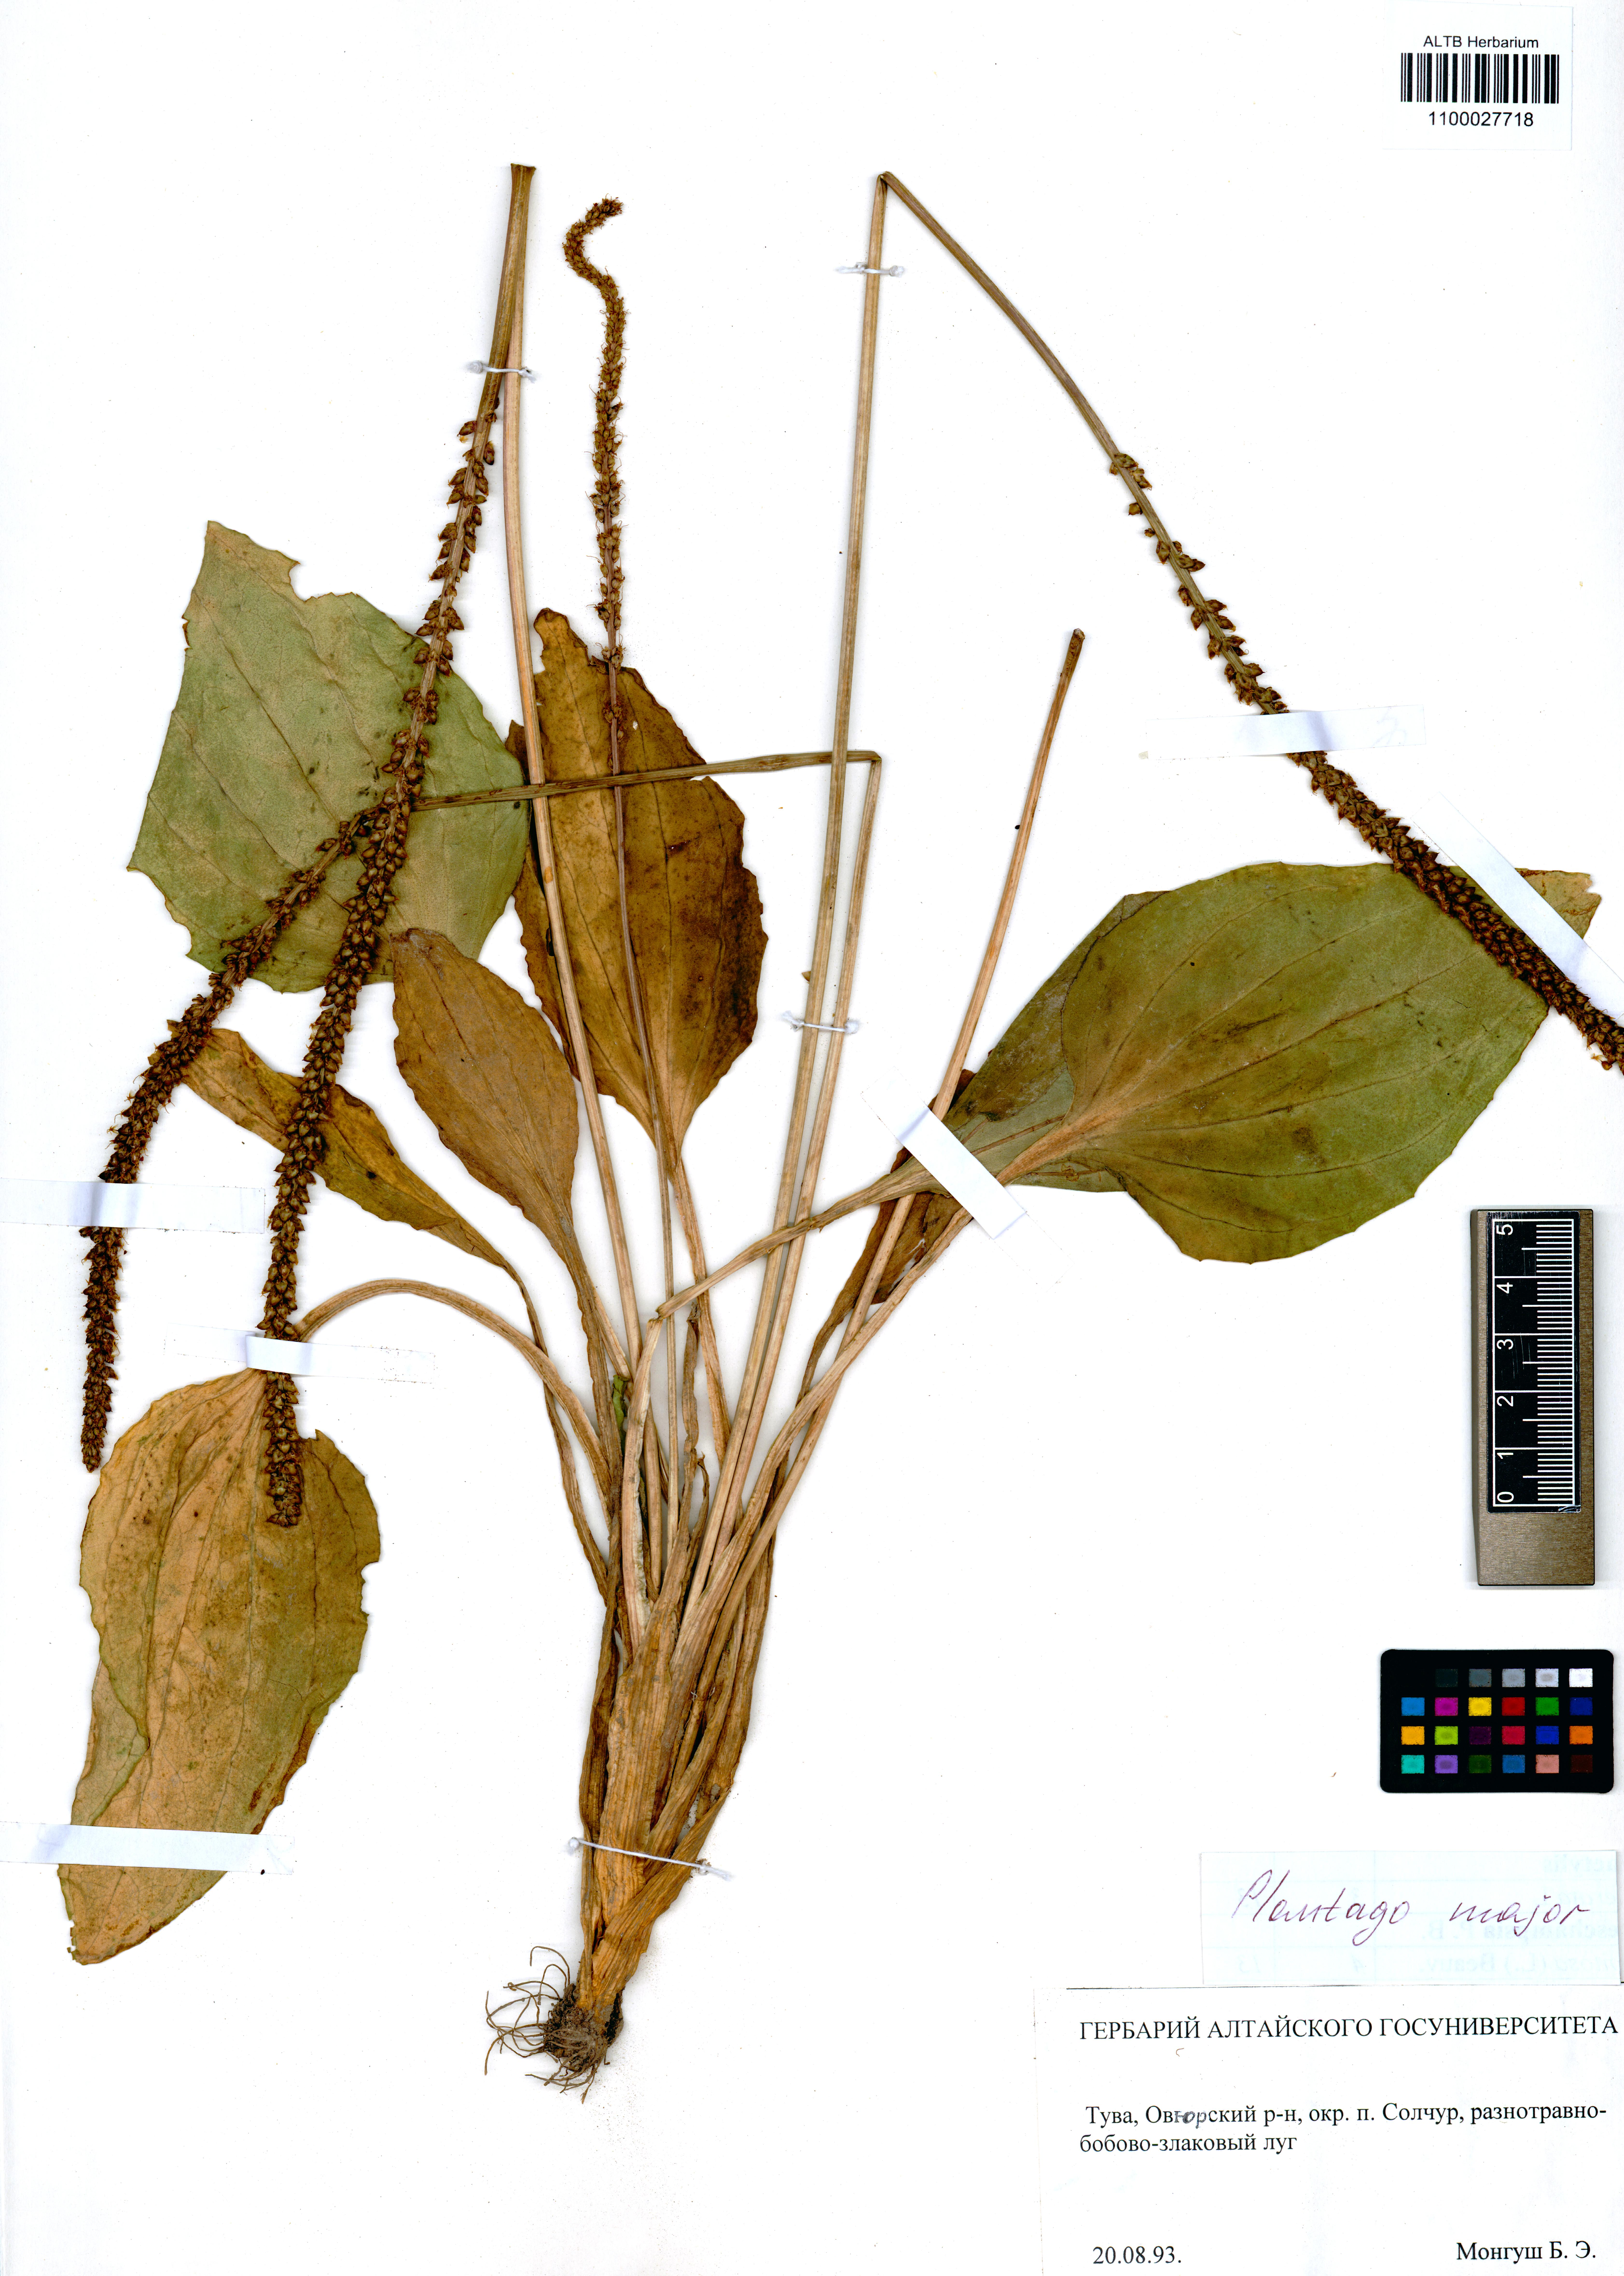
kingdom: Plantae
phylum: Tracheophyta
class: Magnoliopsida
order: Lamiales
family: Plantaginaceae
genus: Plantago
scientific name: Plantago major
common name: Common plantain
